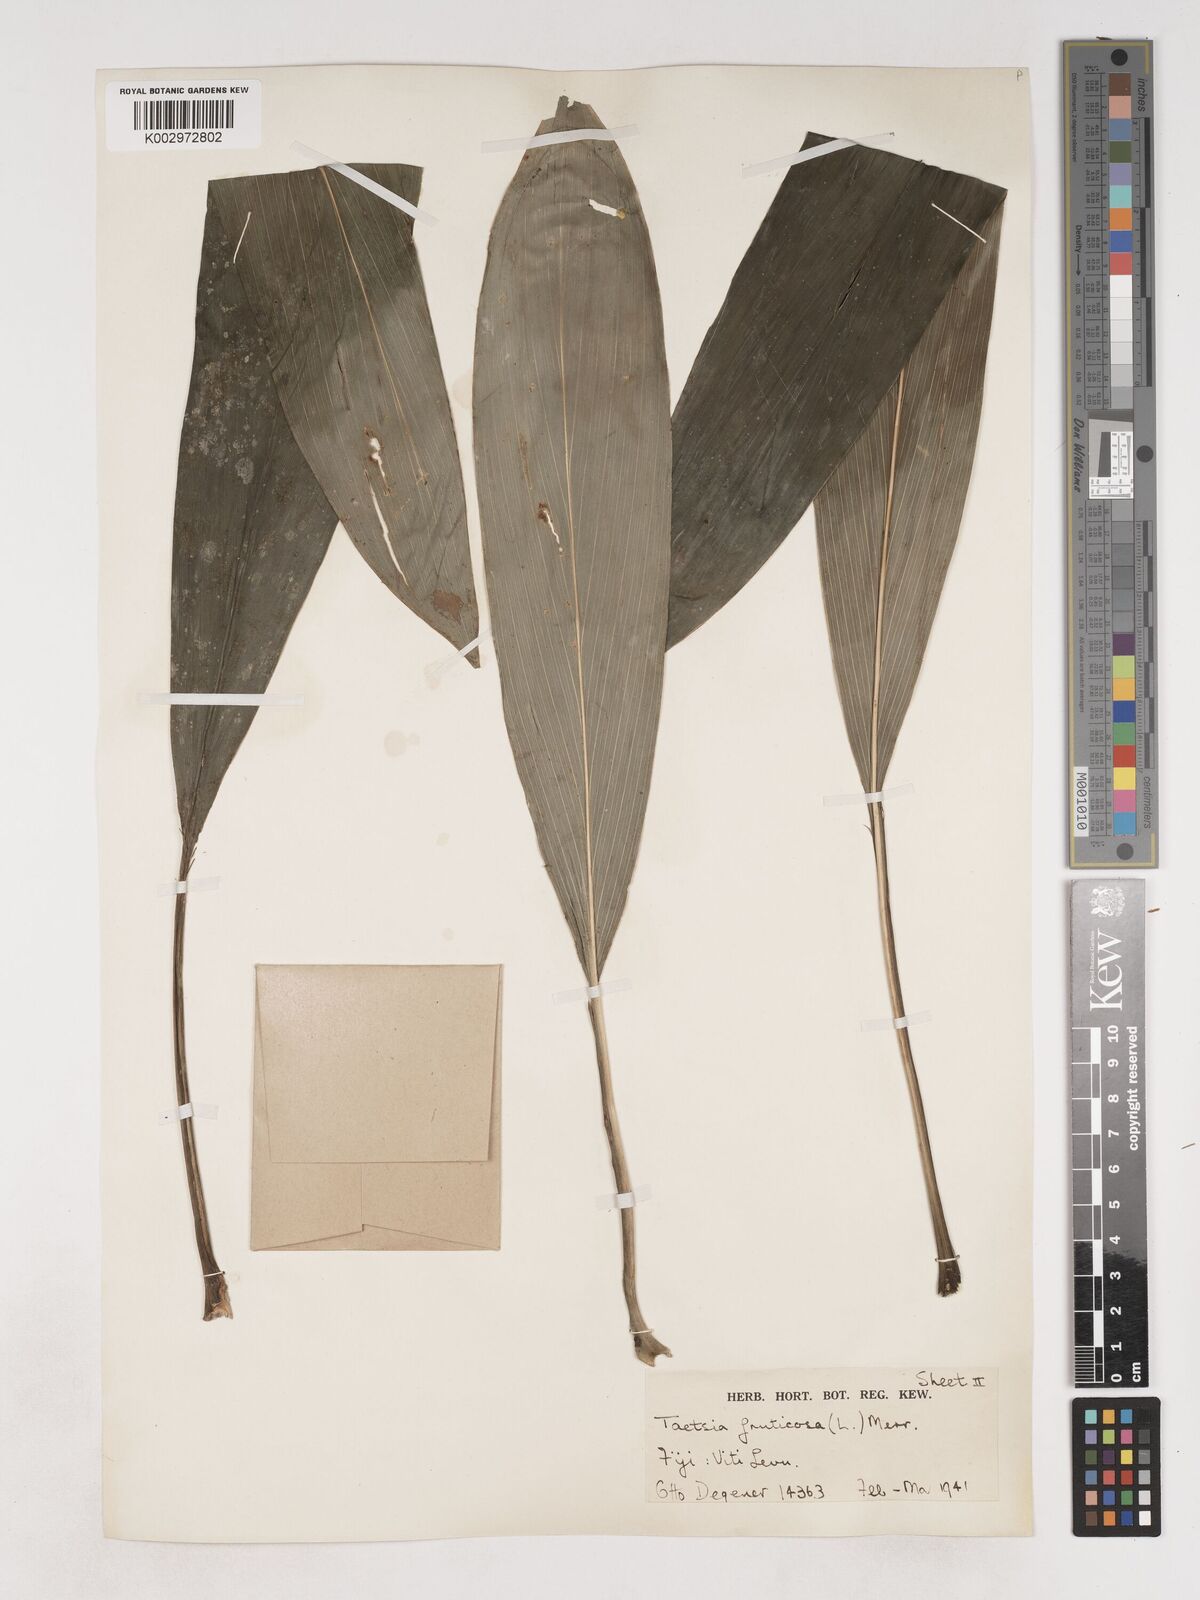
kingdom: Plantae
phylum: Tracheophyta
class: Liliopsida
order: Asparagales
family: Asparagaceae
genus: Cordyline
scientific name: Cordyline fruticosa
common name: Good-luck-plant
